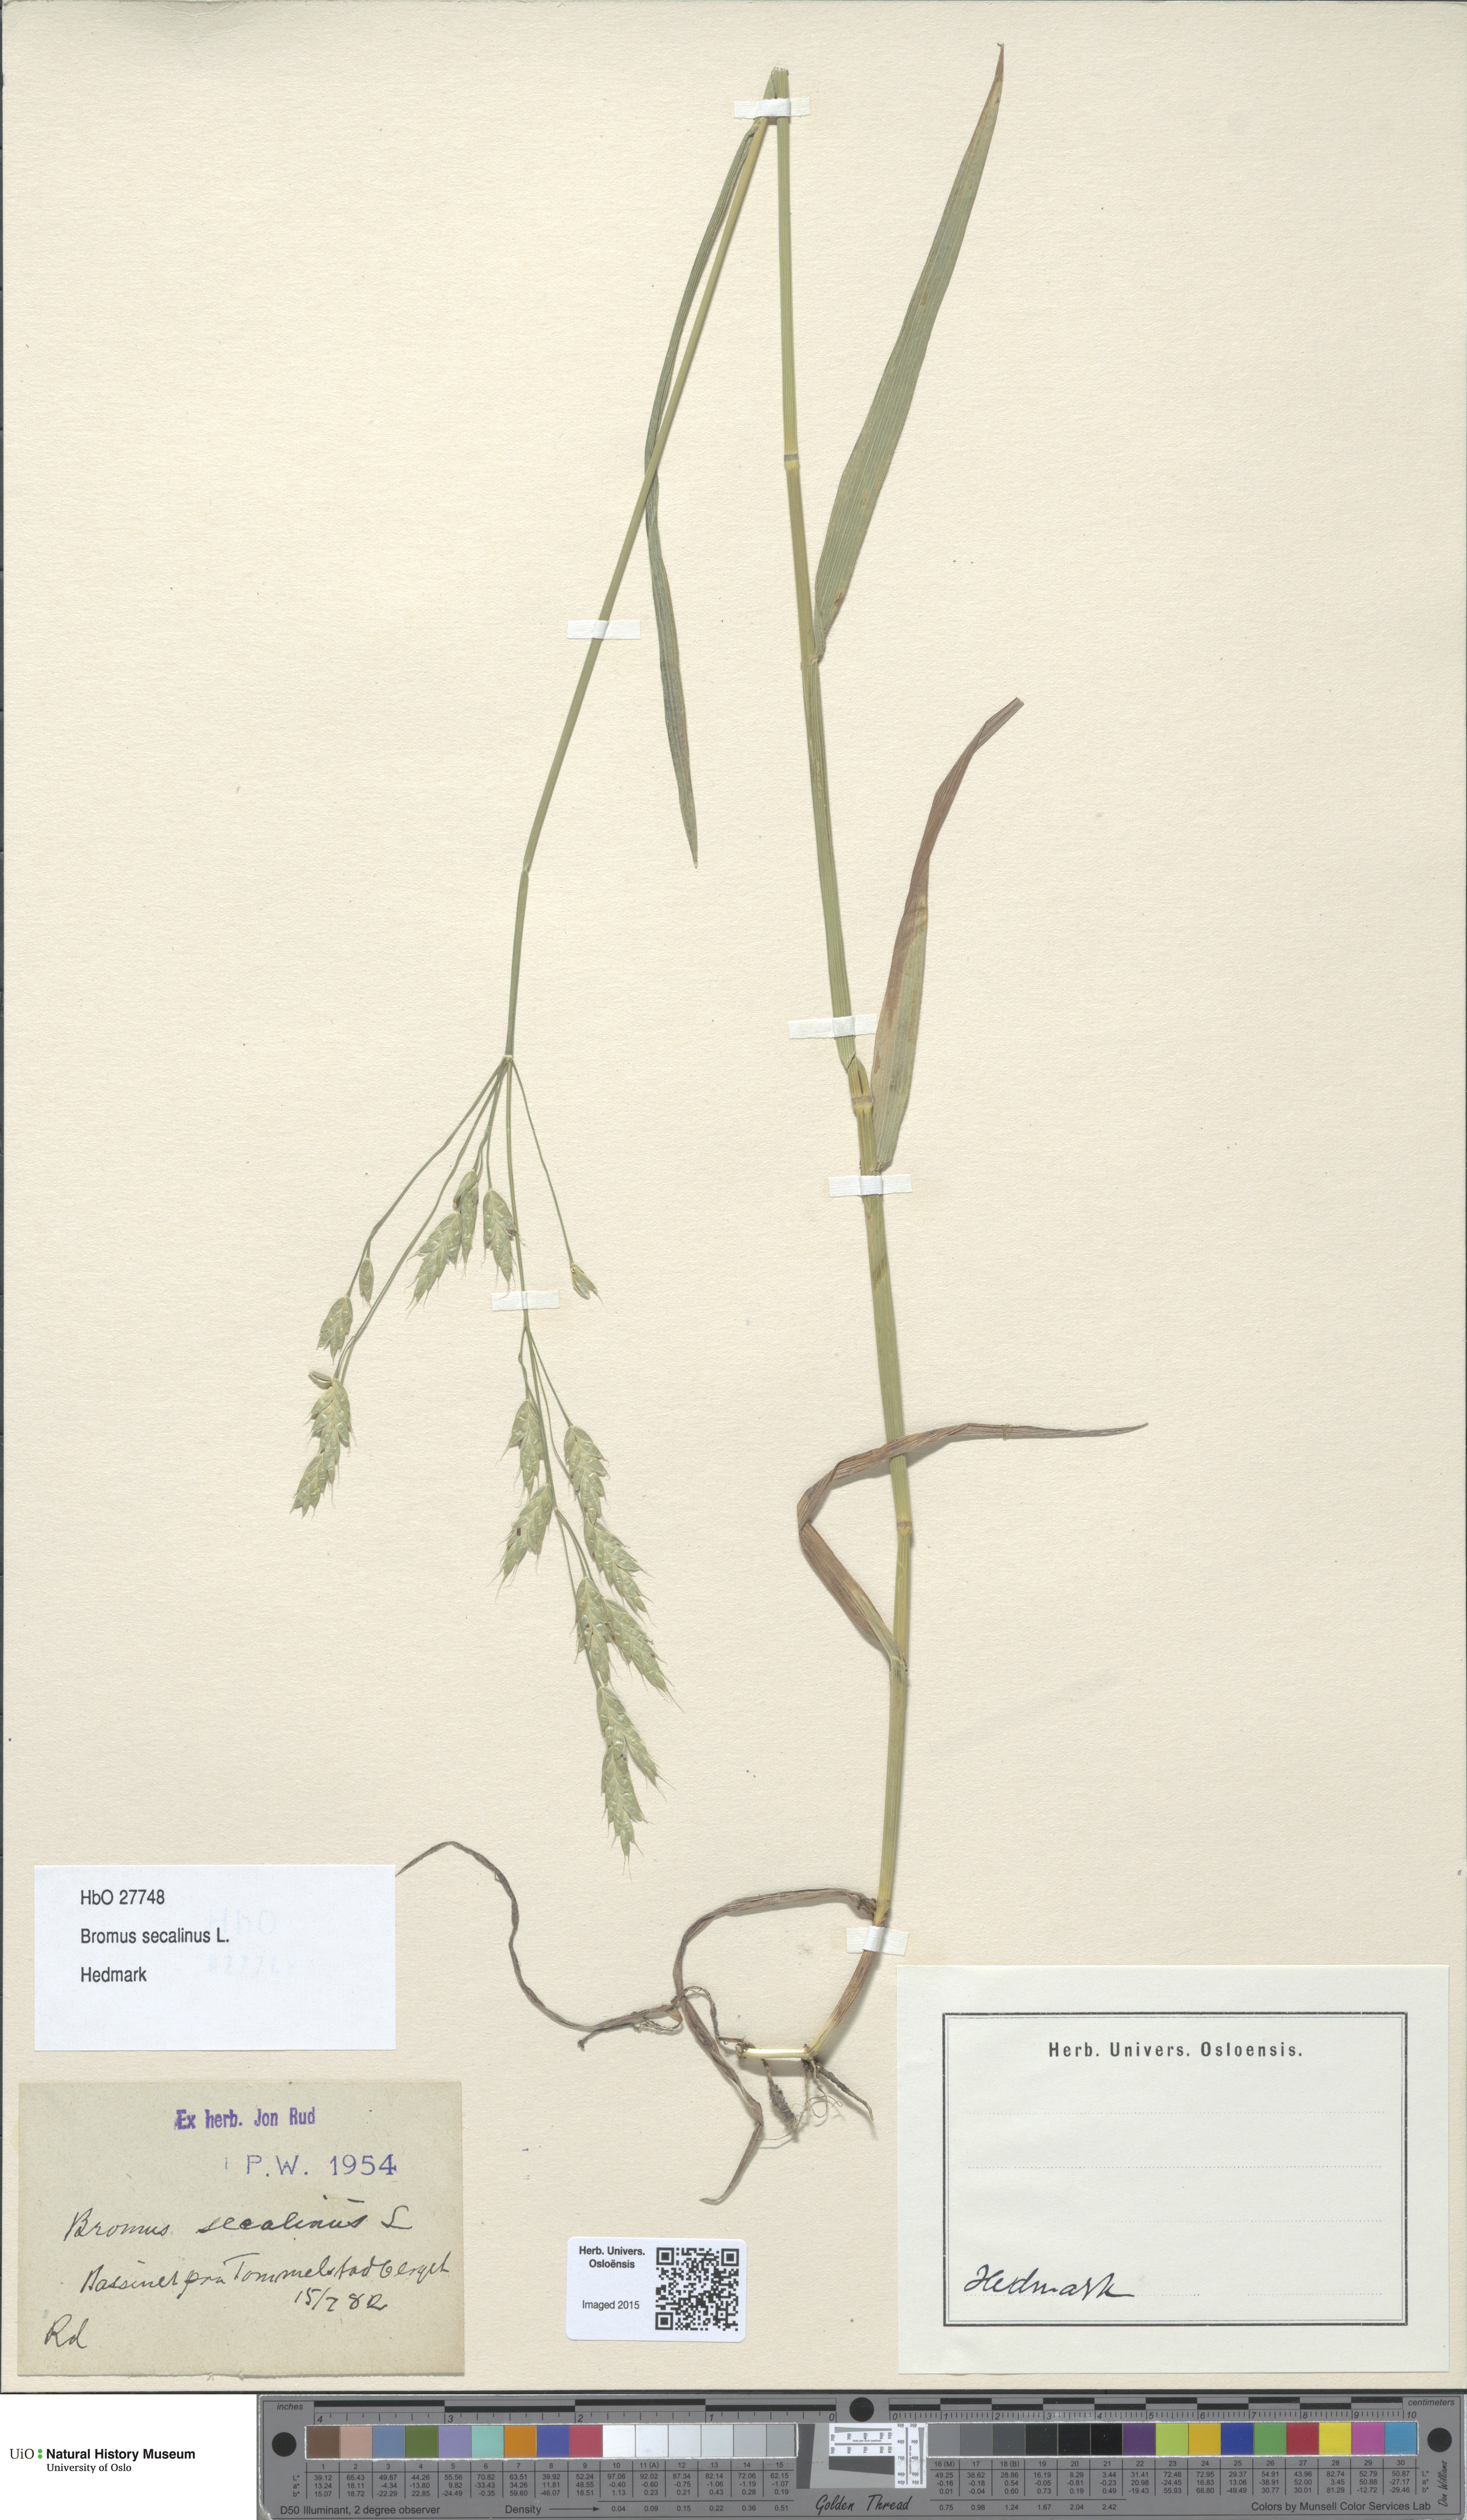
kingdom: Plantae
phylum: Tracheophyta
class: Liliopsida
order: Poales
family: Poaceae
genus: Bromus
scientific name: Bromus secalinus
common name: Rye brome
